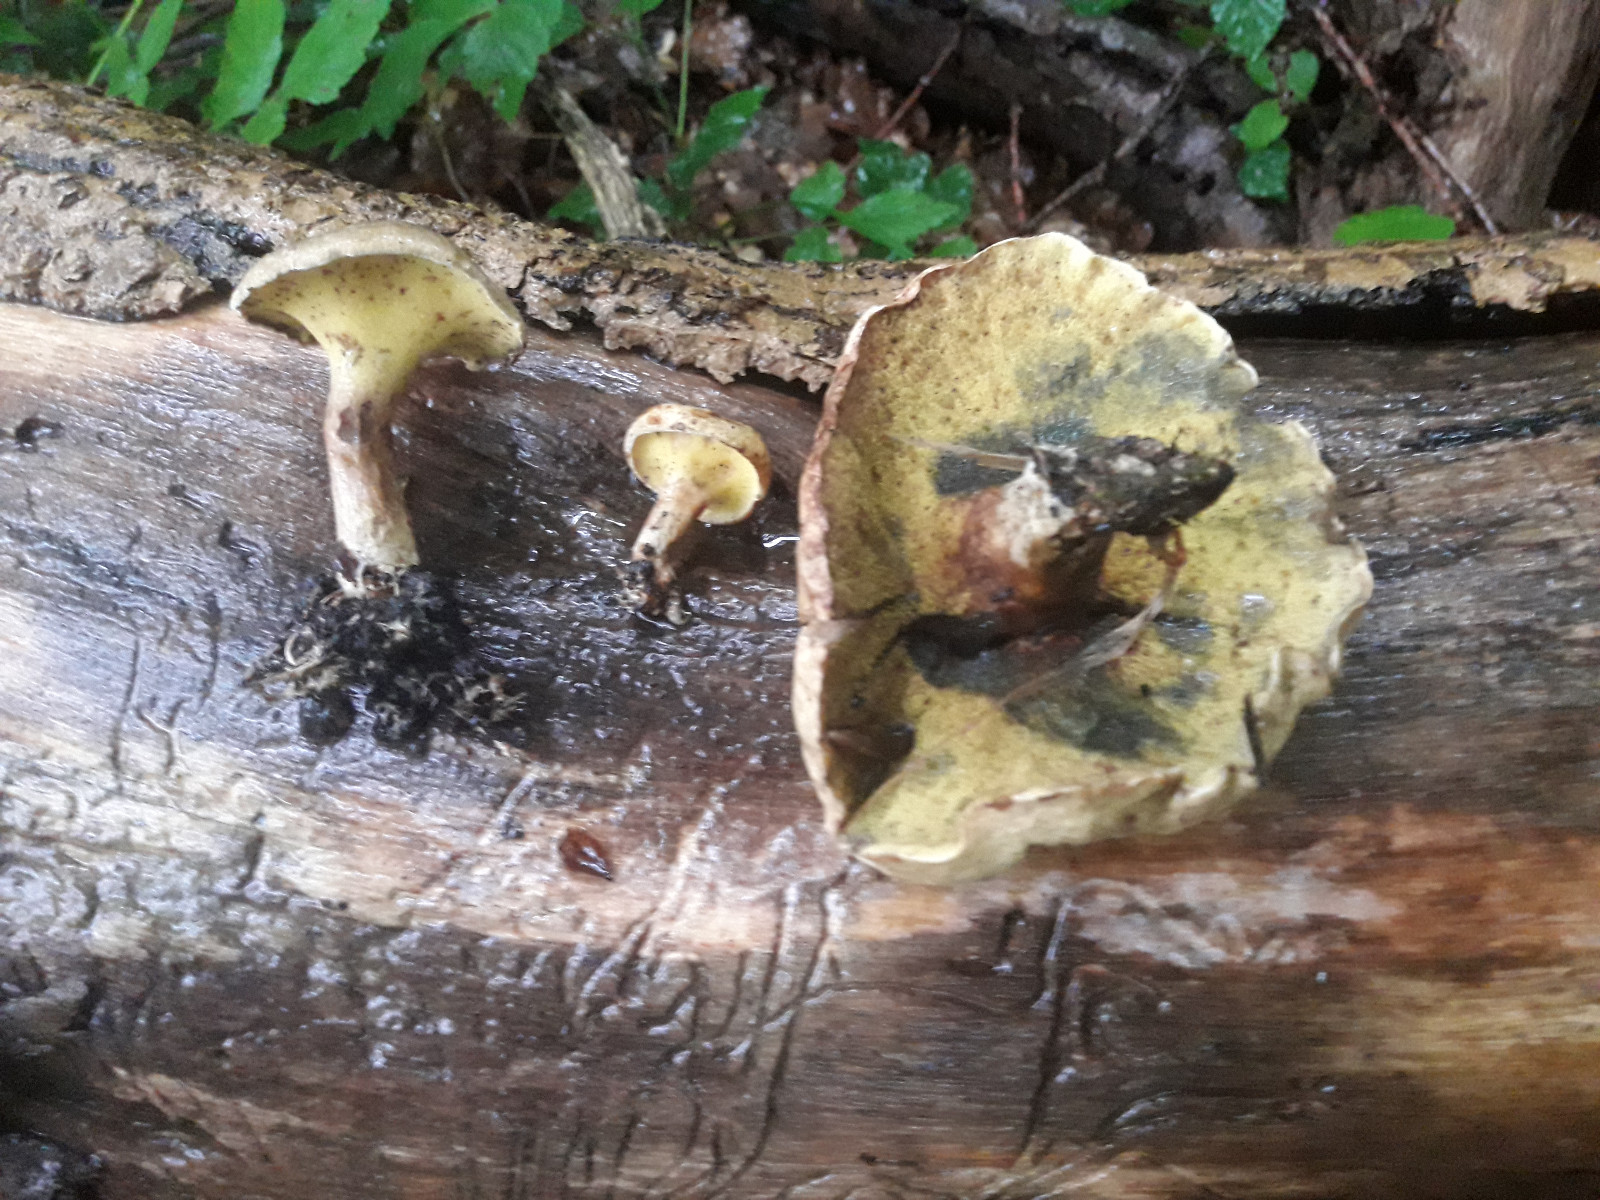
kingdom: Fungi
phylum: Basidiomycota
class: Agaricomycetes
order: Boletales
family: Paxillaceae
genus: Gyrodon
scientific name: Gyrodon lividus
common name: ellerørhat
